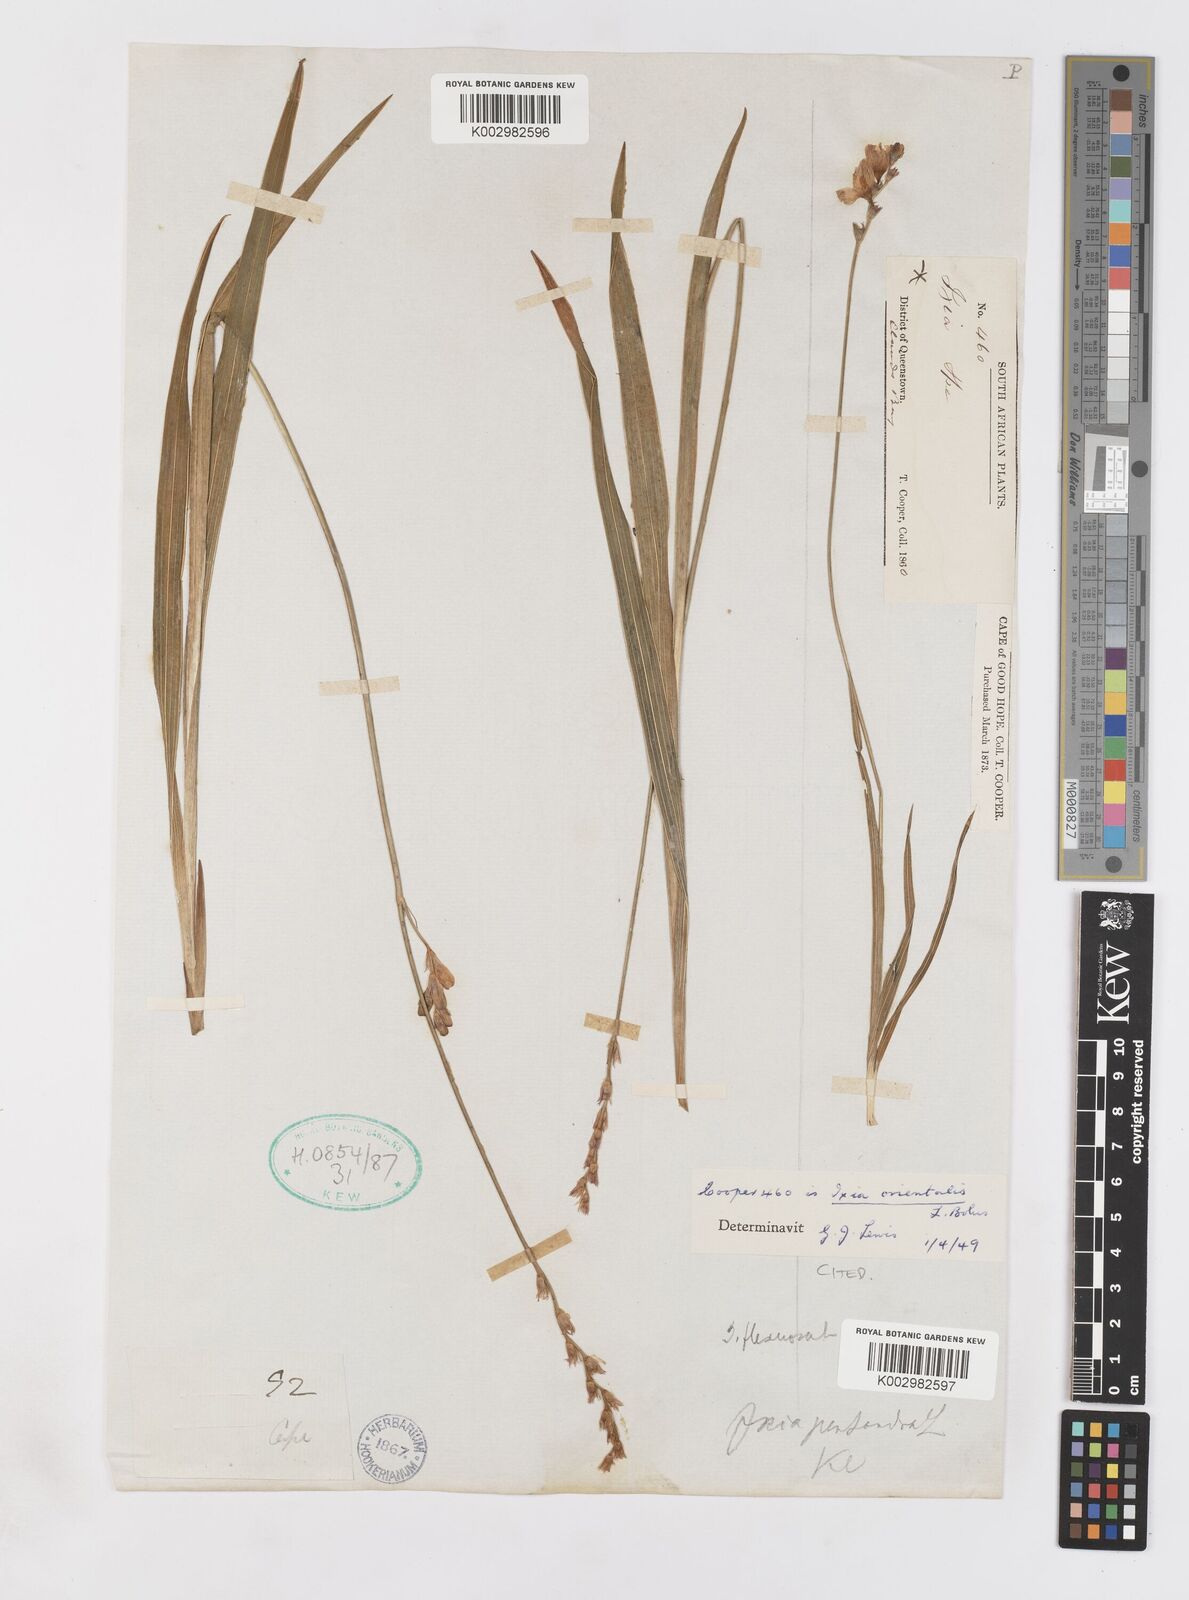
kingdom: Plantae
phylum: Tracheophyta
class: Liliopsida
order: Asparagales
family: Iridaceae
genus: Ixia
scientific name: Ixia orientalis
